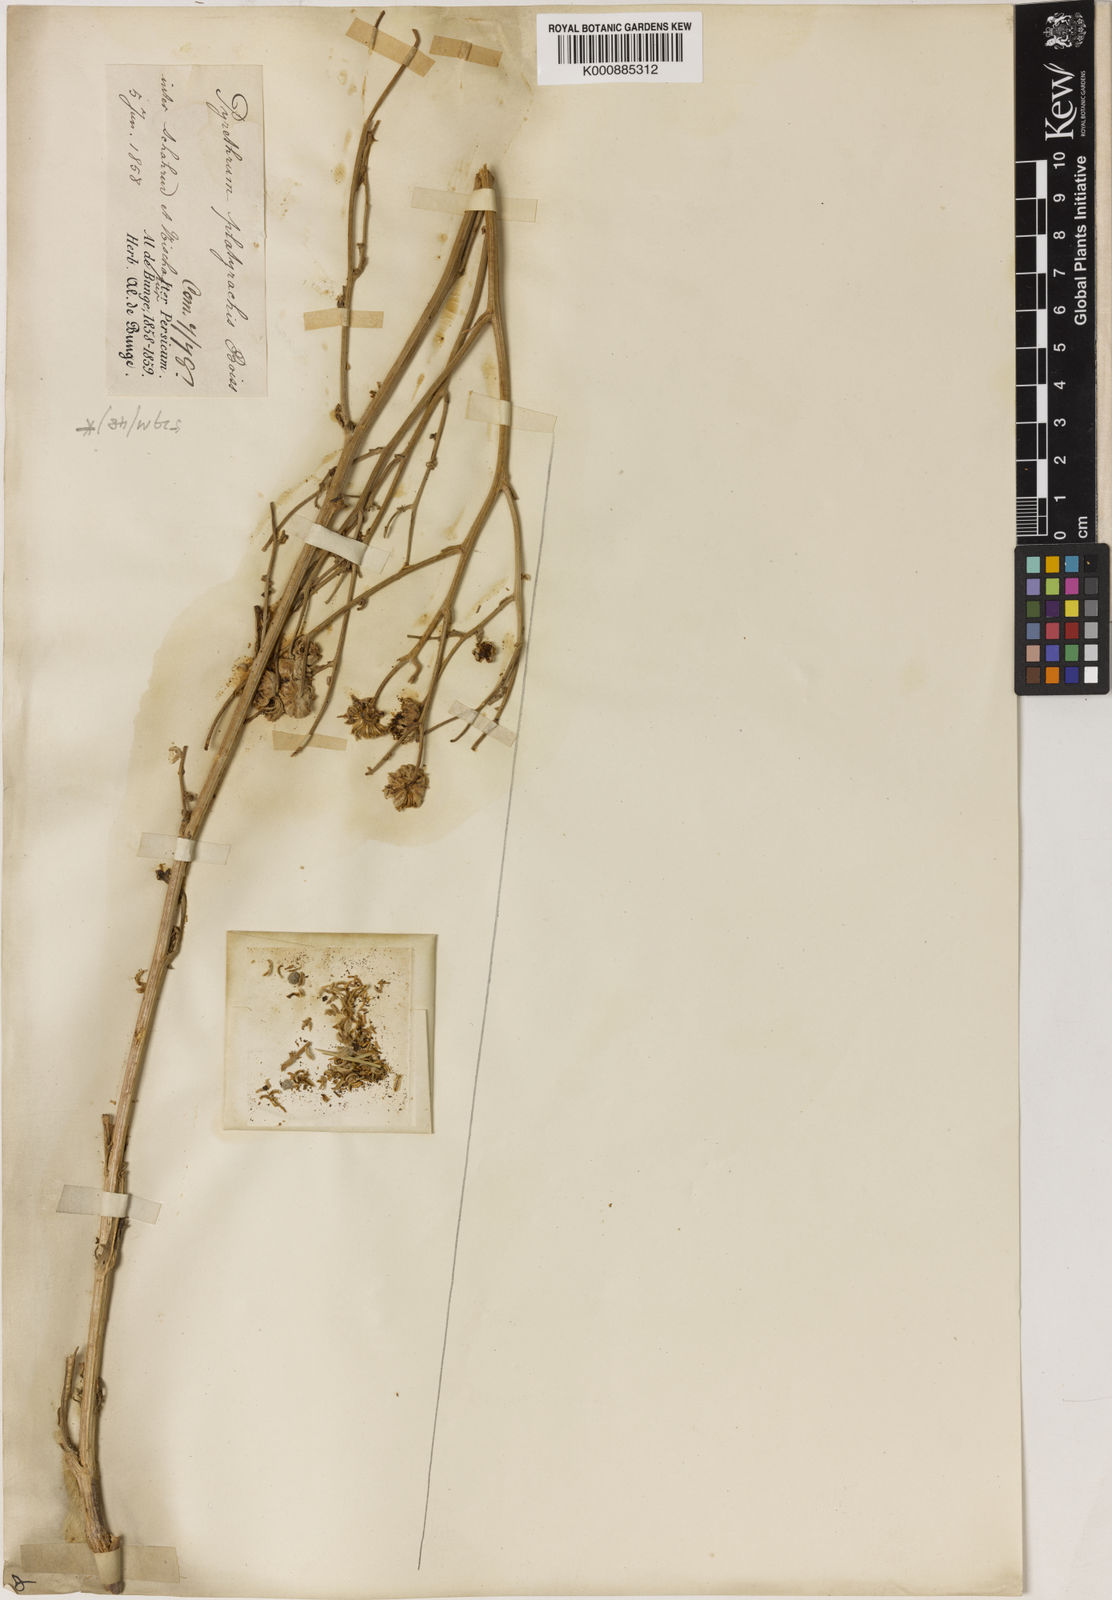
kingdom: Plantae
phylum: Tracheophyta
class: Magnoliopsida
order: Asterales
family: Asteraceae
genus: Sclerorhachis
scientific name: Sclerorhachis platyrachis
